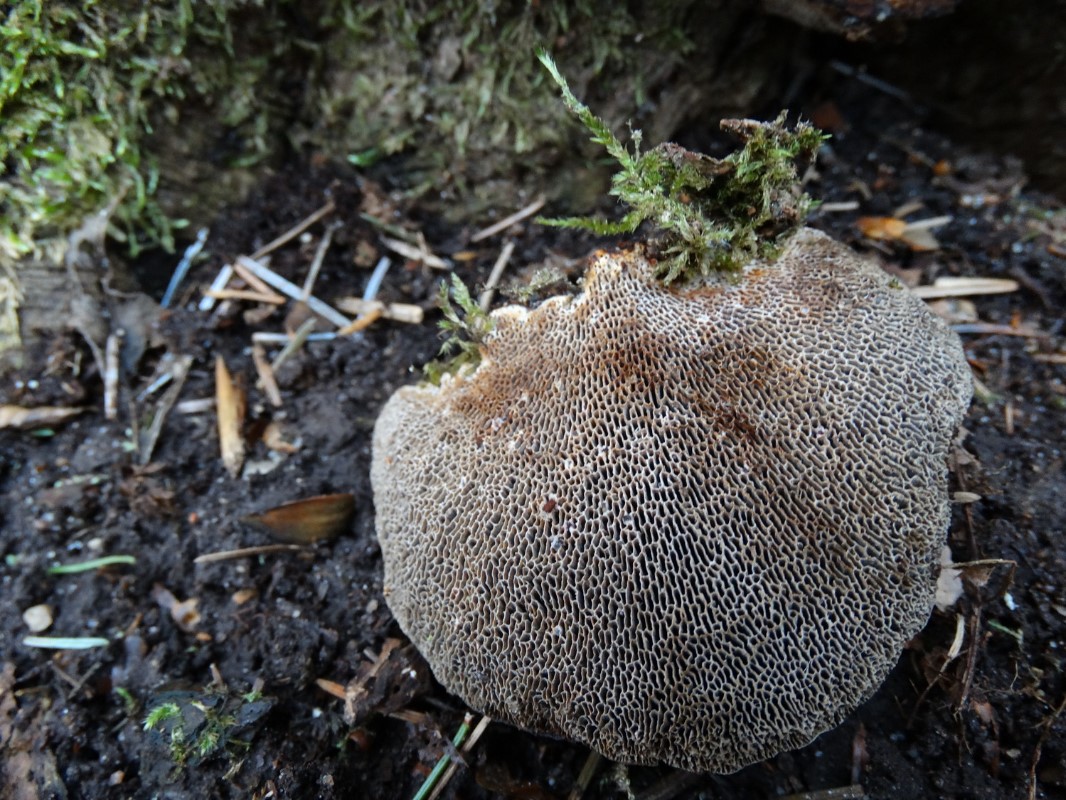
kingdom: Fungi
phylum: Basidiomycota
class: Agaricomycetes
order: Polyporales
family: Polyporaceae
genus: Daedaleopsis
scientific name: Daedaleopsis confragosa
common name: rødmende læderporesvamp
